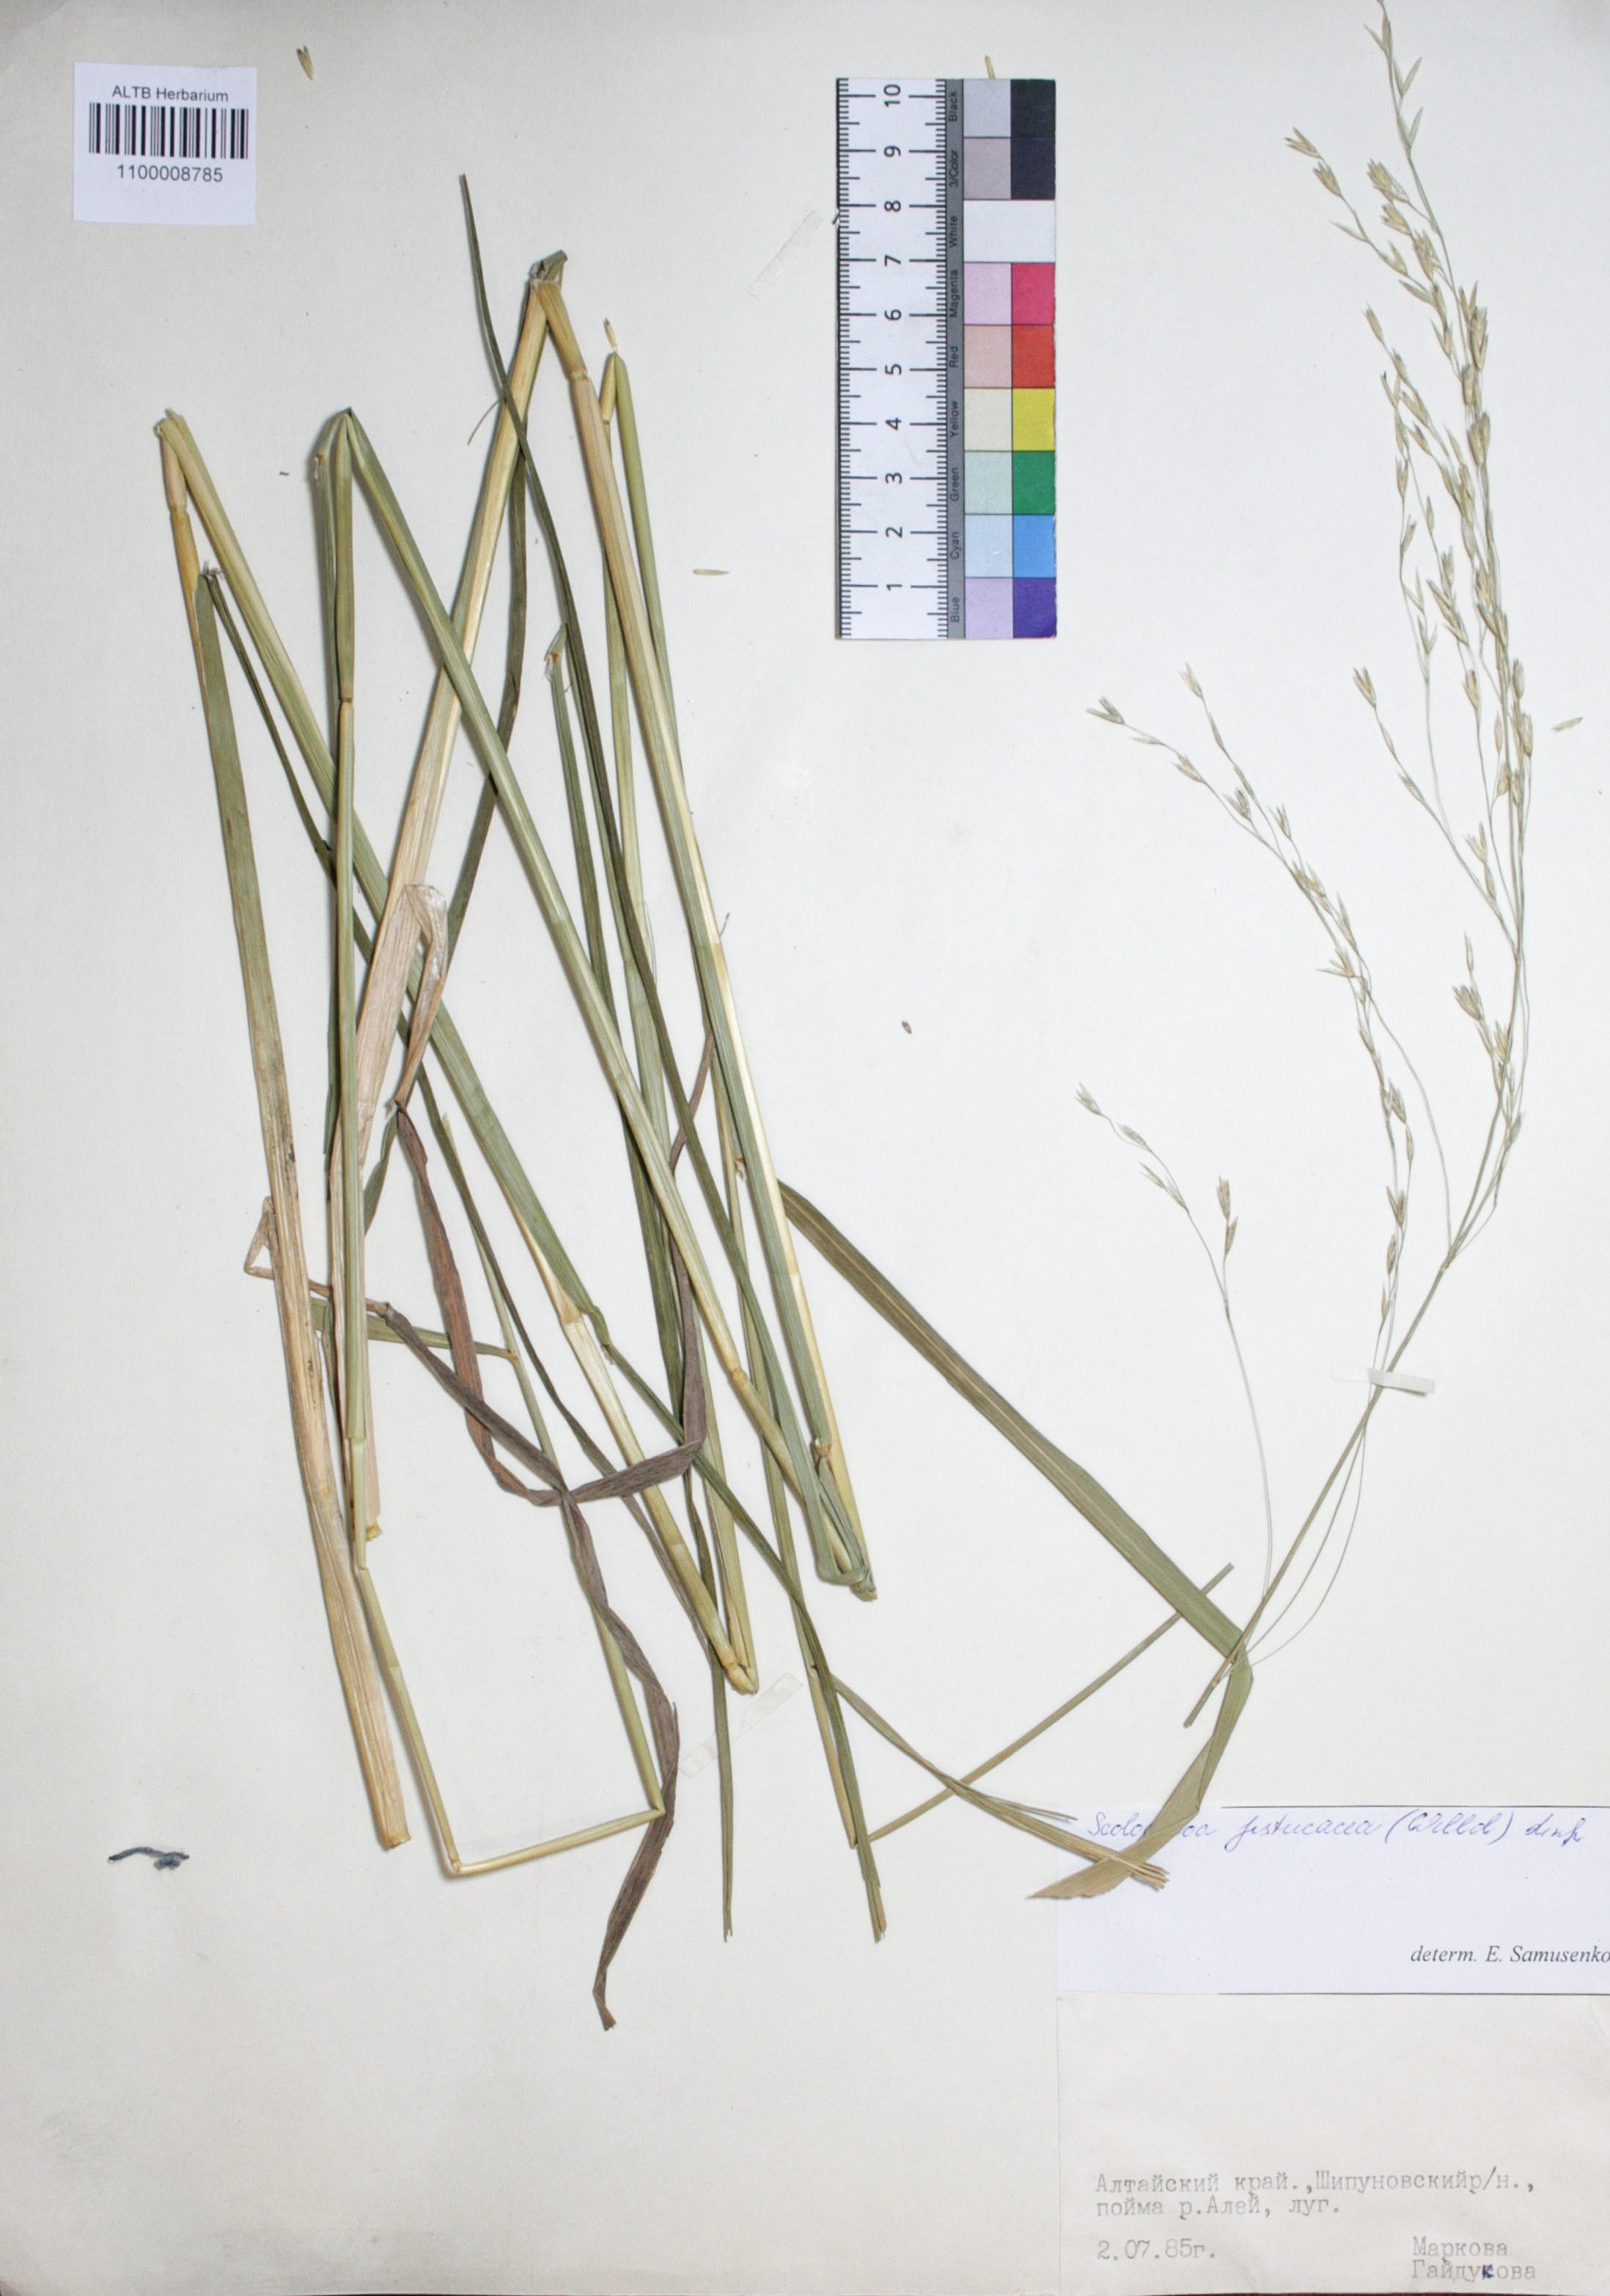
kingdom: Plantae
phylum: Tracheophyta
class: Liliopsida
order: Poales
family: Poaceae
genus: Scolochloa
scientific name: Scolochloa festucacea
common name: Common rivergrass
